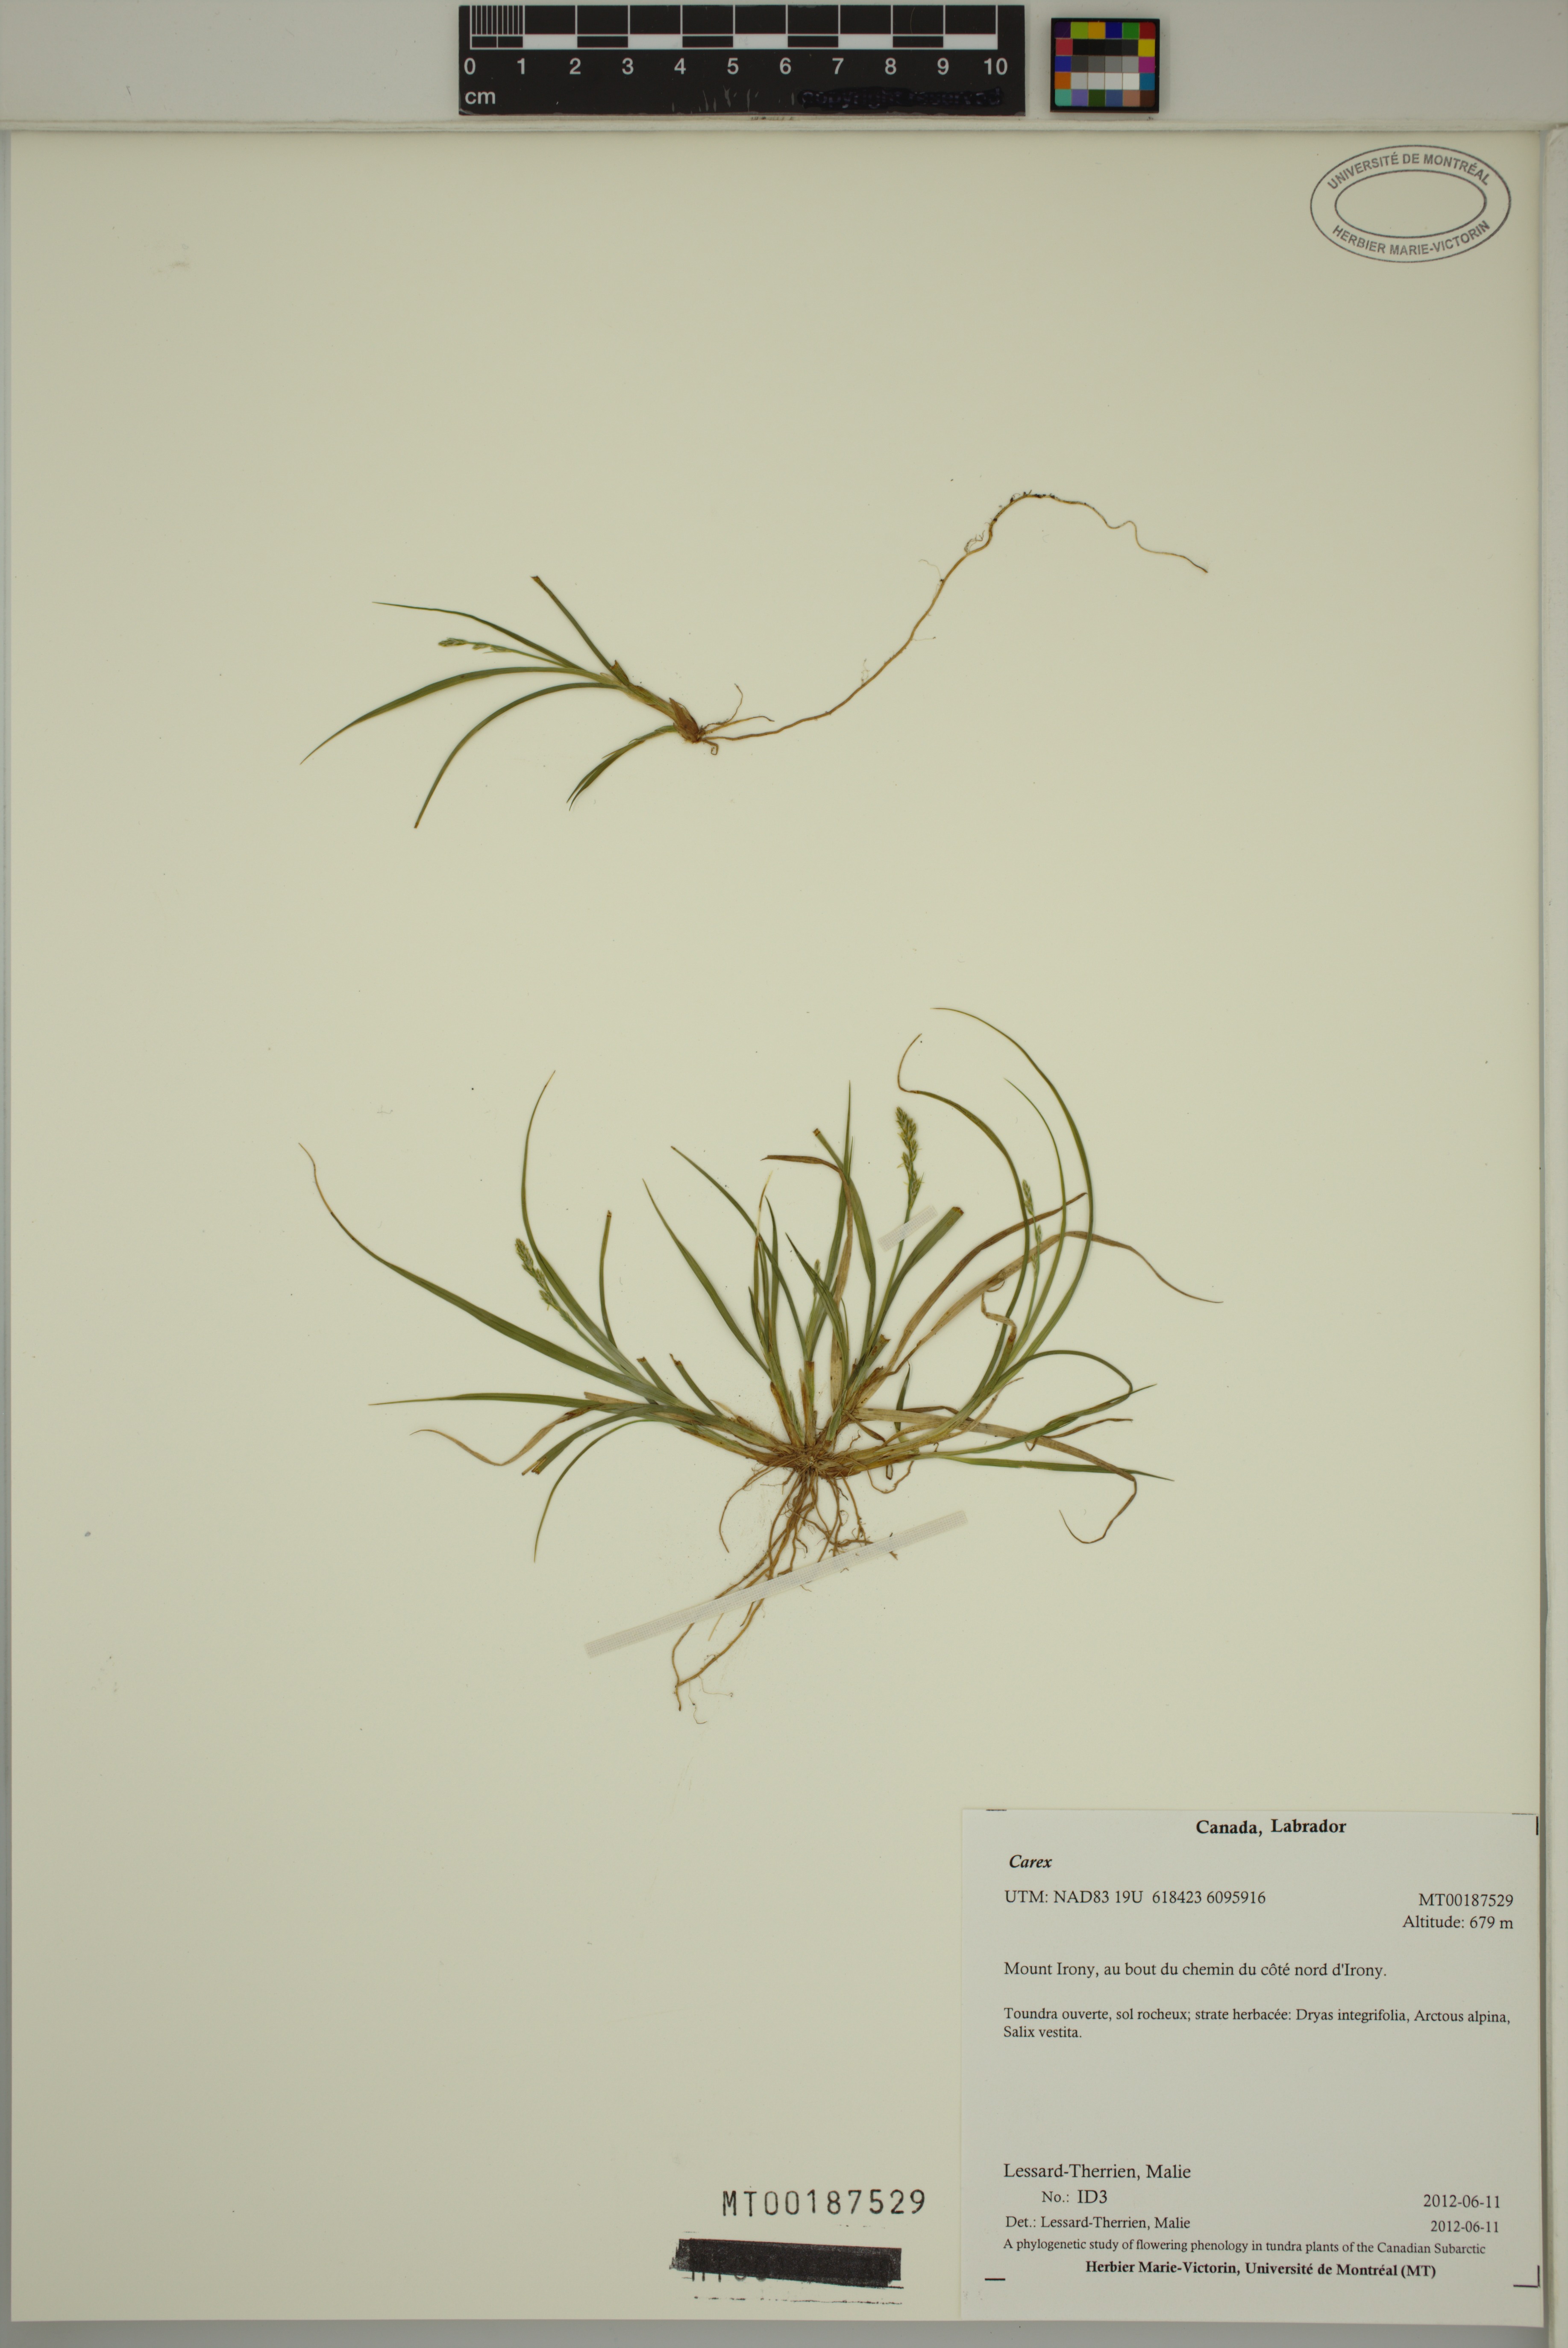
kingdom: Plantae
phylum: Tracheophyta
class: Liliopsida
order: Poales
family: Cyperaceae
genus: Carex
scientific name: Carex
